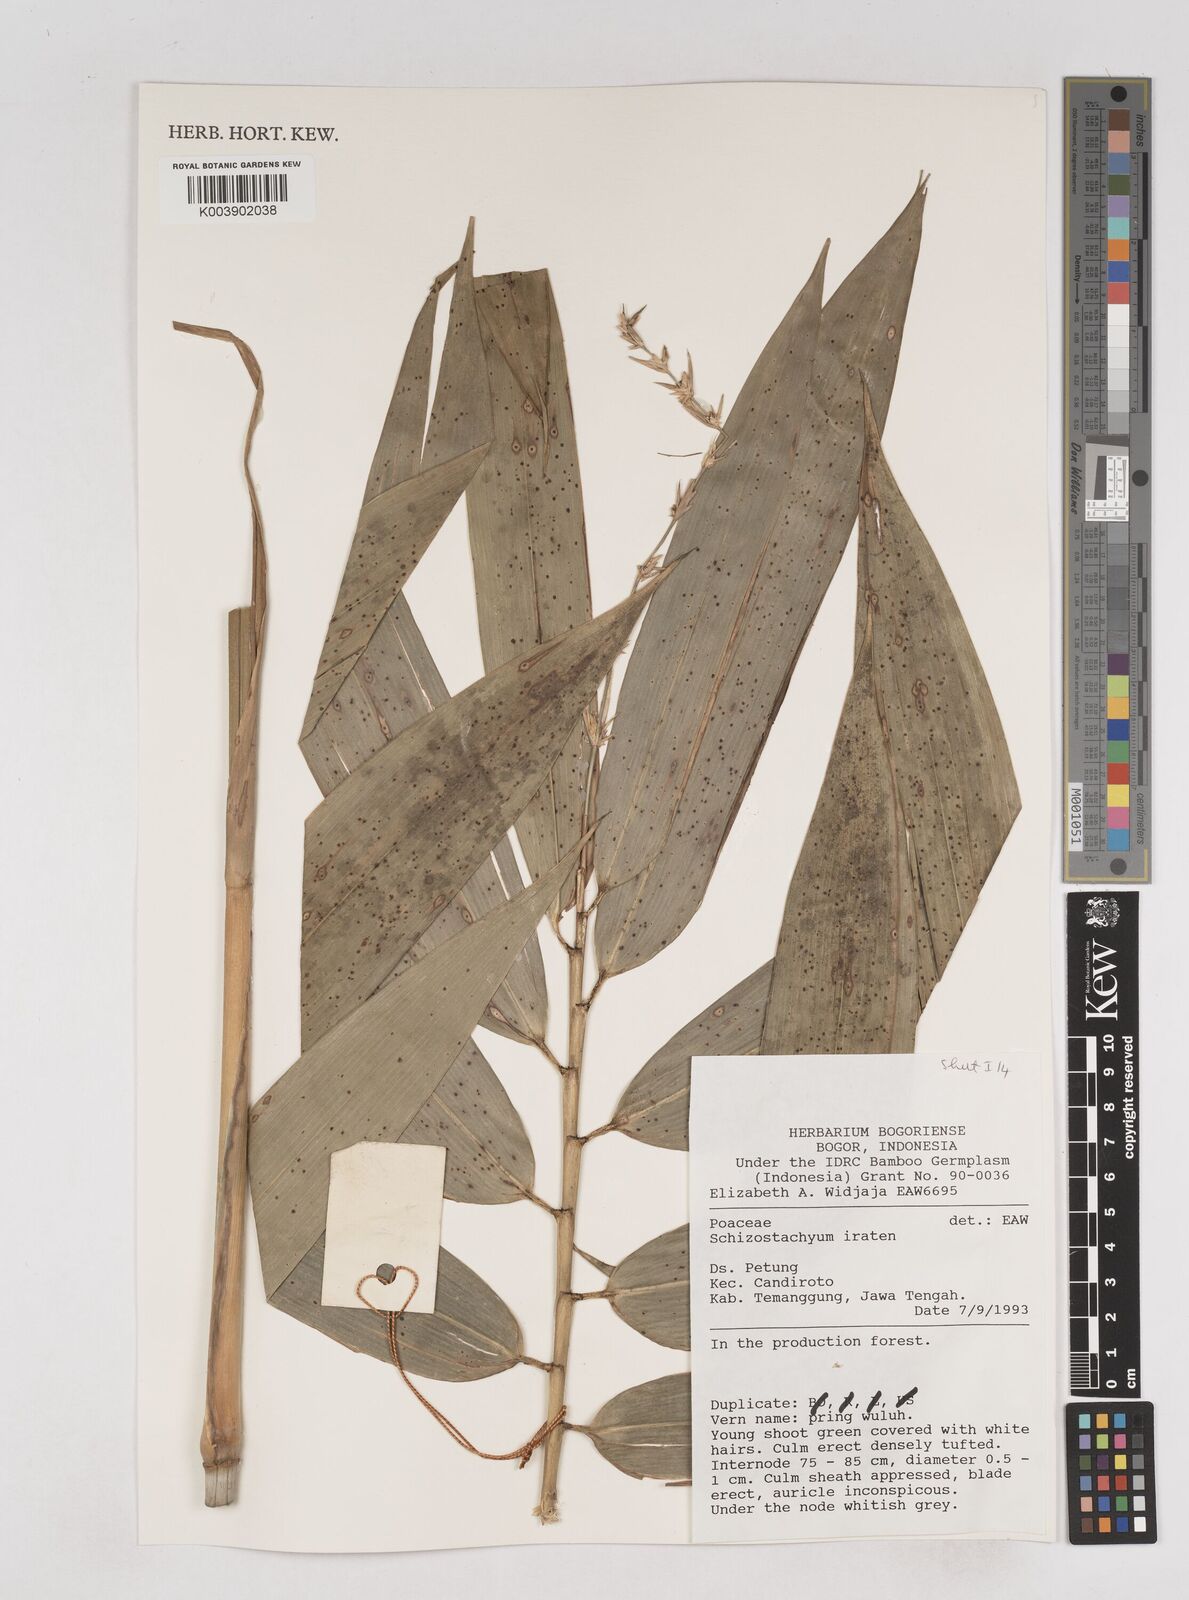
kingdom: Plantae
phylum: Tracheophyta
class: Liliopsida
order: Poales
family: Poaceae
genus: Schizostachyum
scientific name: Schizostachyum iraten
